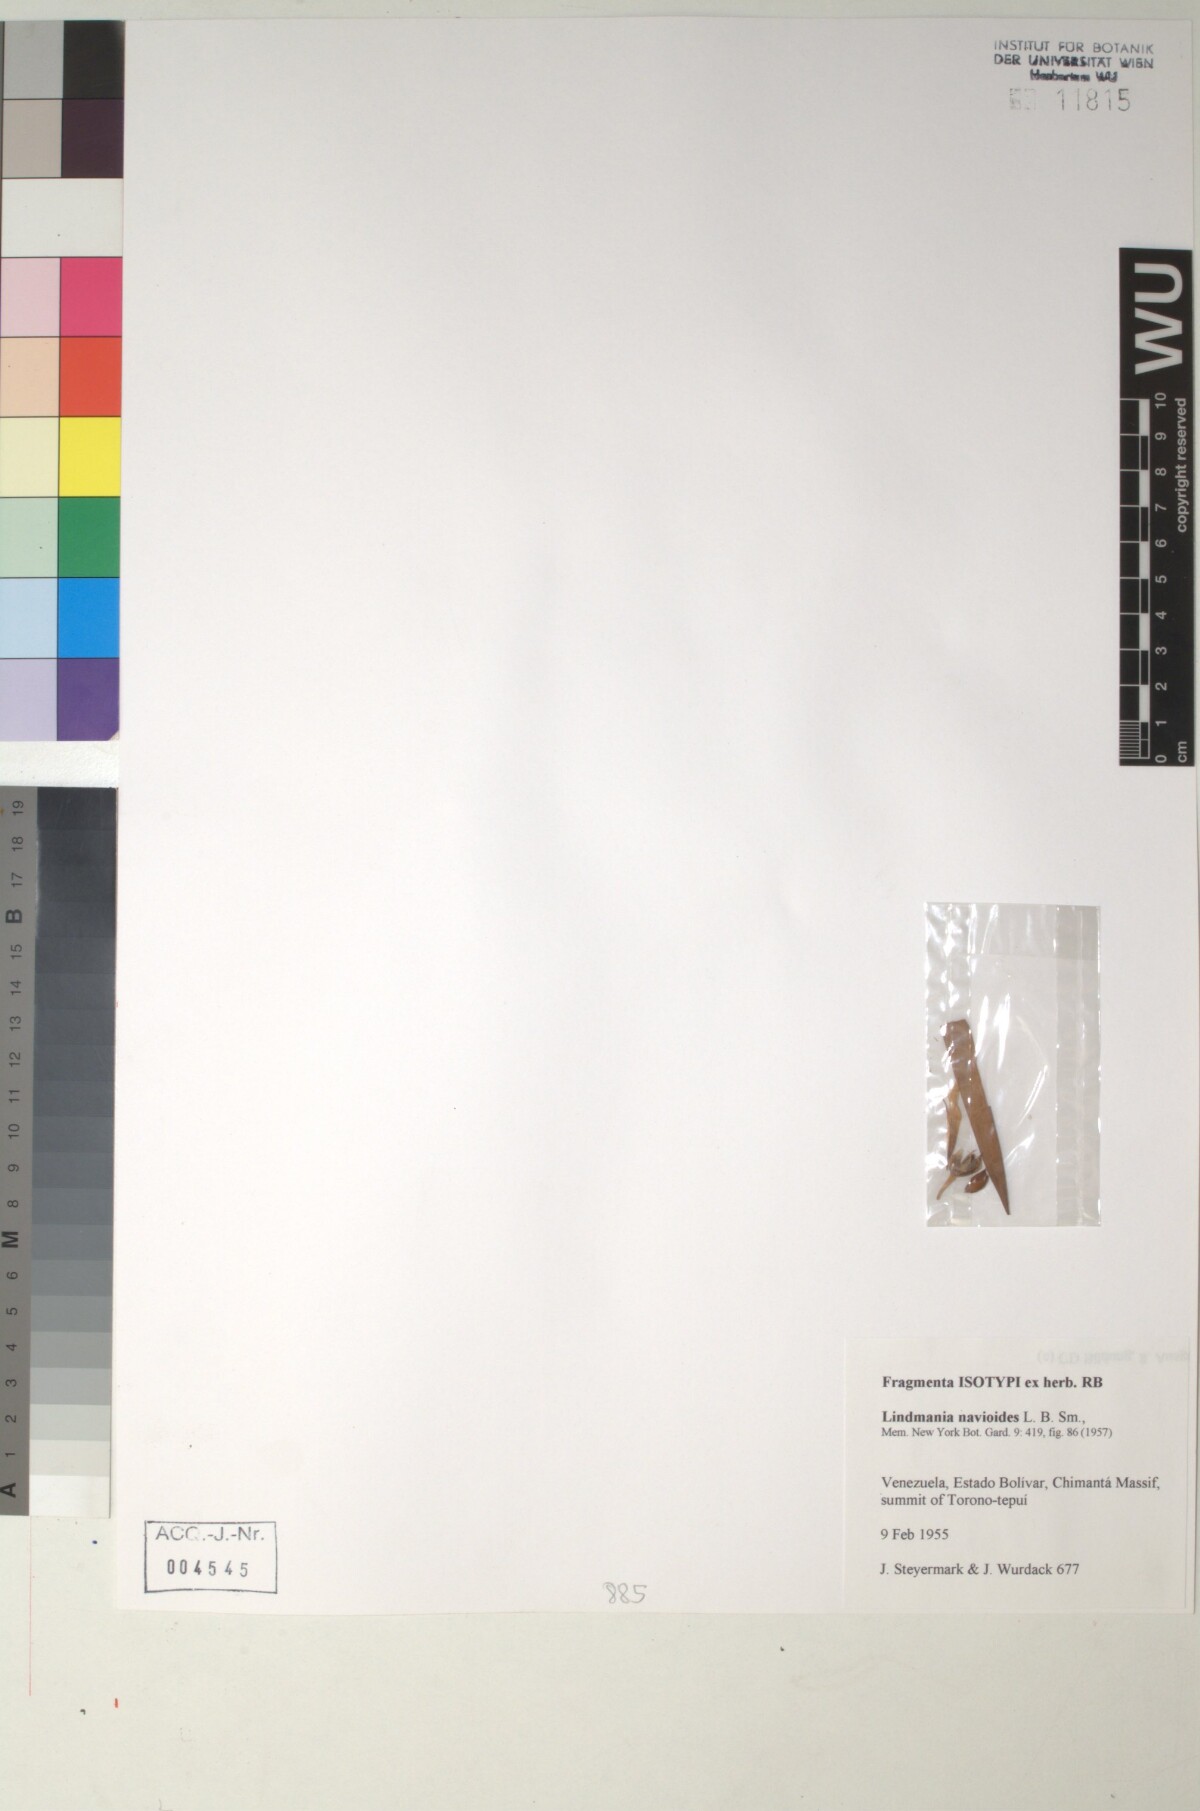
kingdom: Plantae
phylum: Tracheophyta
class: Liliopsida
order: Poales
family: Bromeliaceae
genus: Lindmania
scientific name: Lindmania
